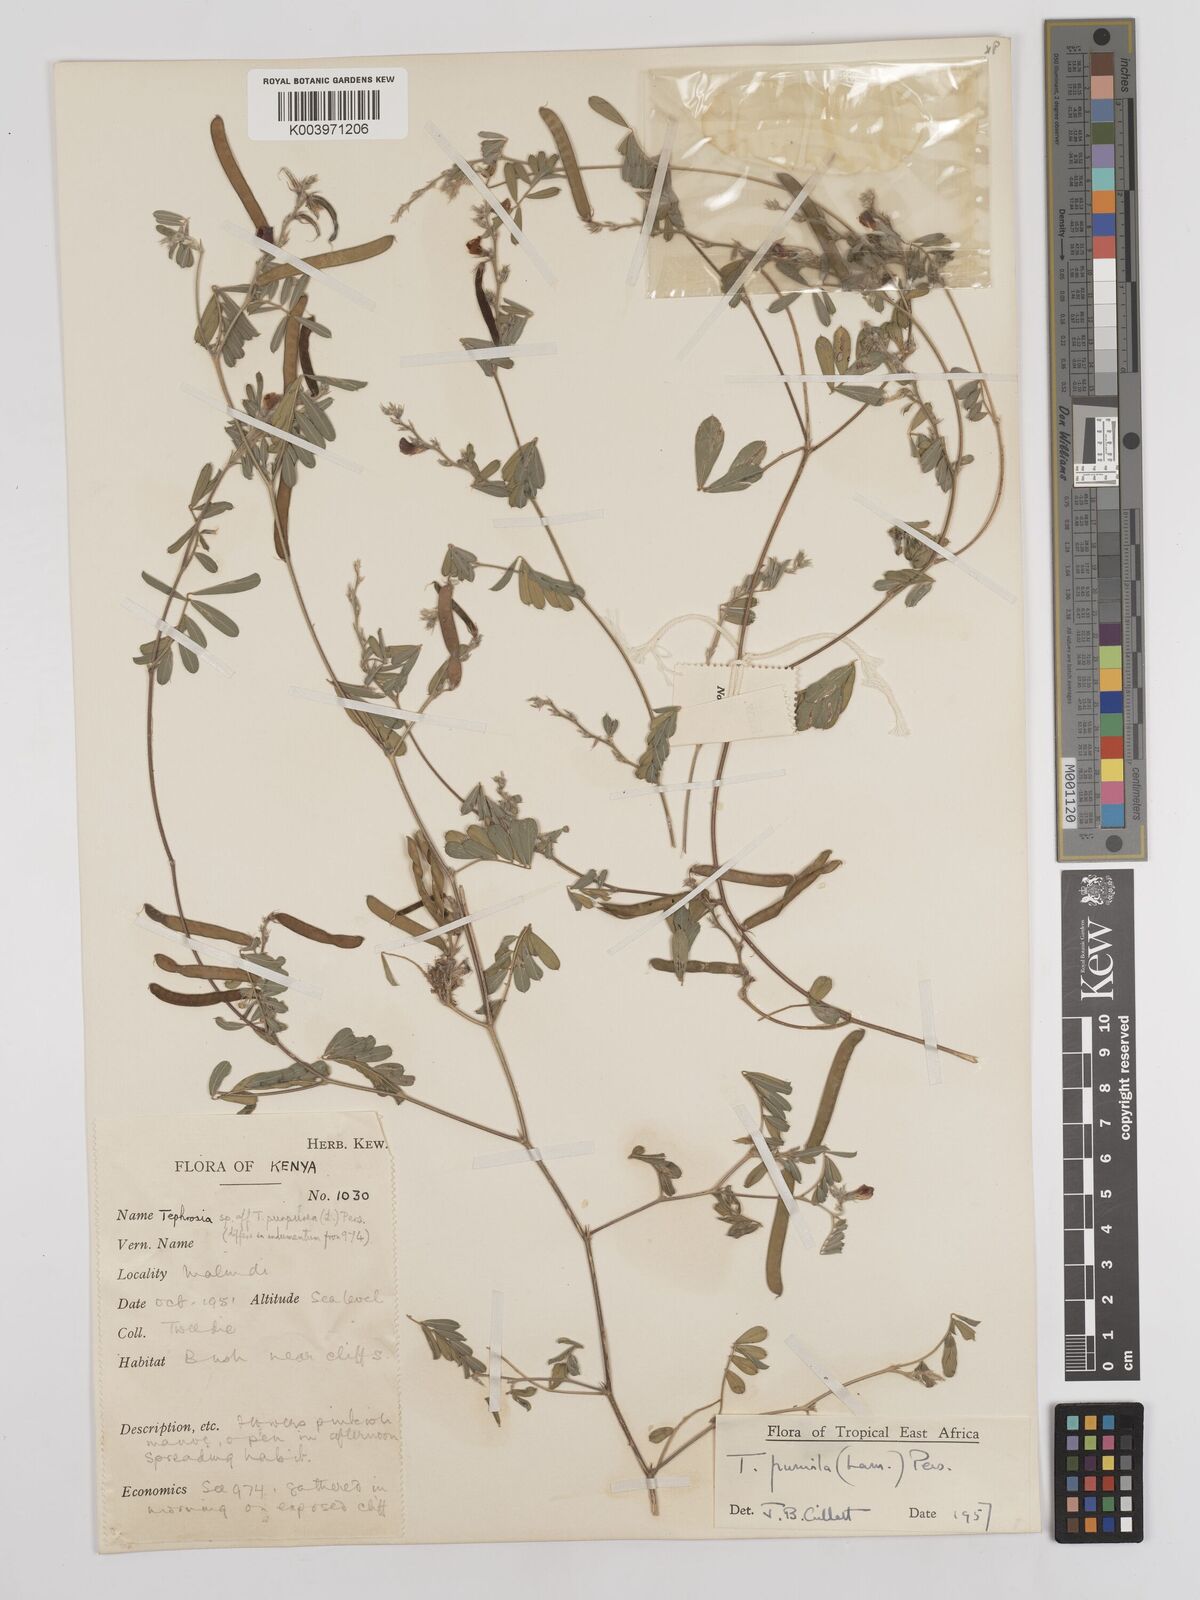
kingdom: Plantae
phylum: Tracheophyta
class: Magnoliopsida
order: Fabales
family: Fabaceae
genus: Tephrosia
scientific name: Tephrosia pumila
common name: Indigo sauvage
